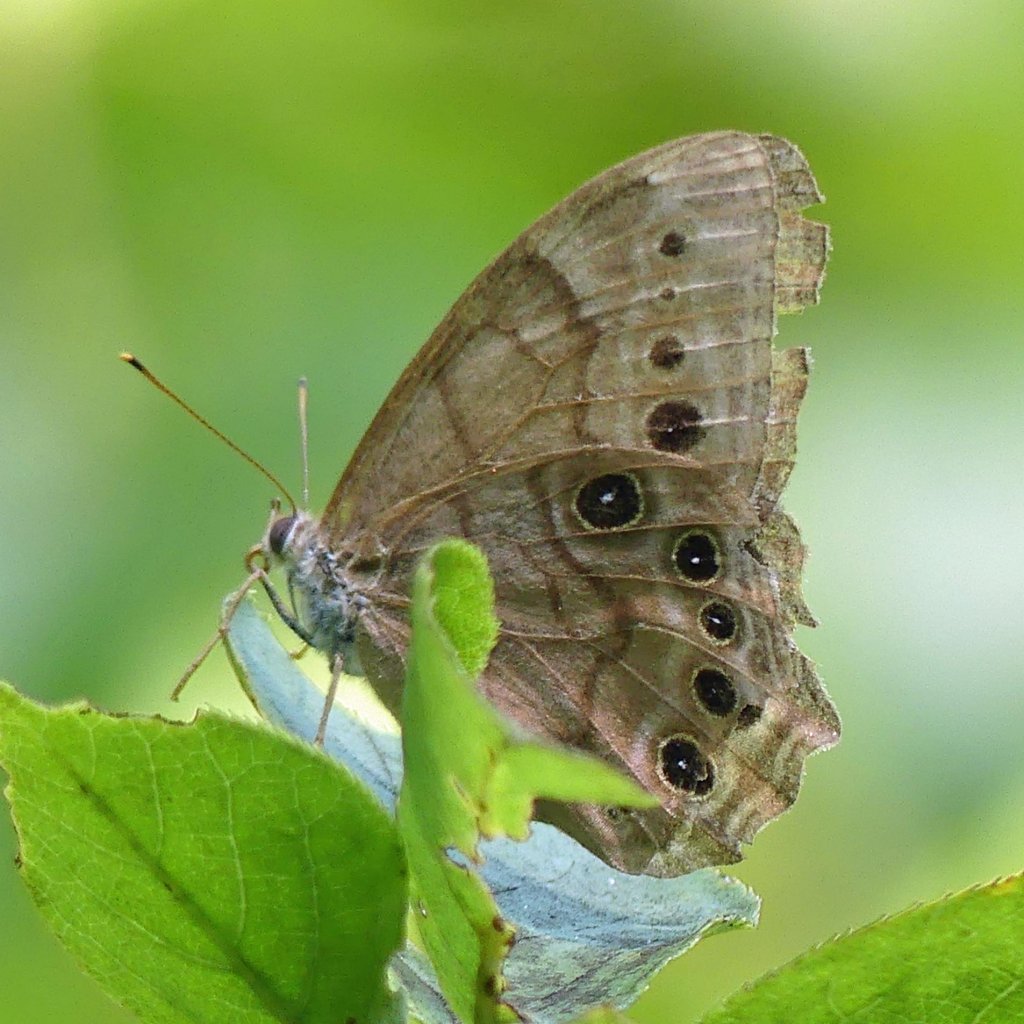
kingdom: Animalia
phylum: Arthropoda
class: Insecta
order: Lepidoptera
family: Nymphalidae
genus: Lethe
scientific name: Lethe anthedon
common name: Northern Pearly-Eye
